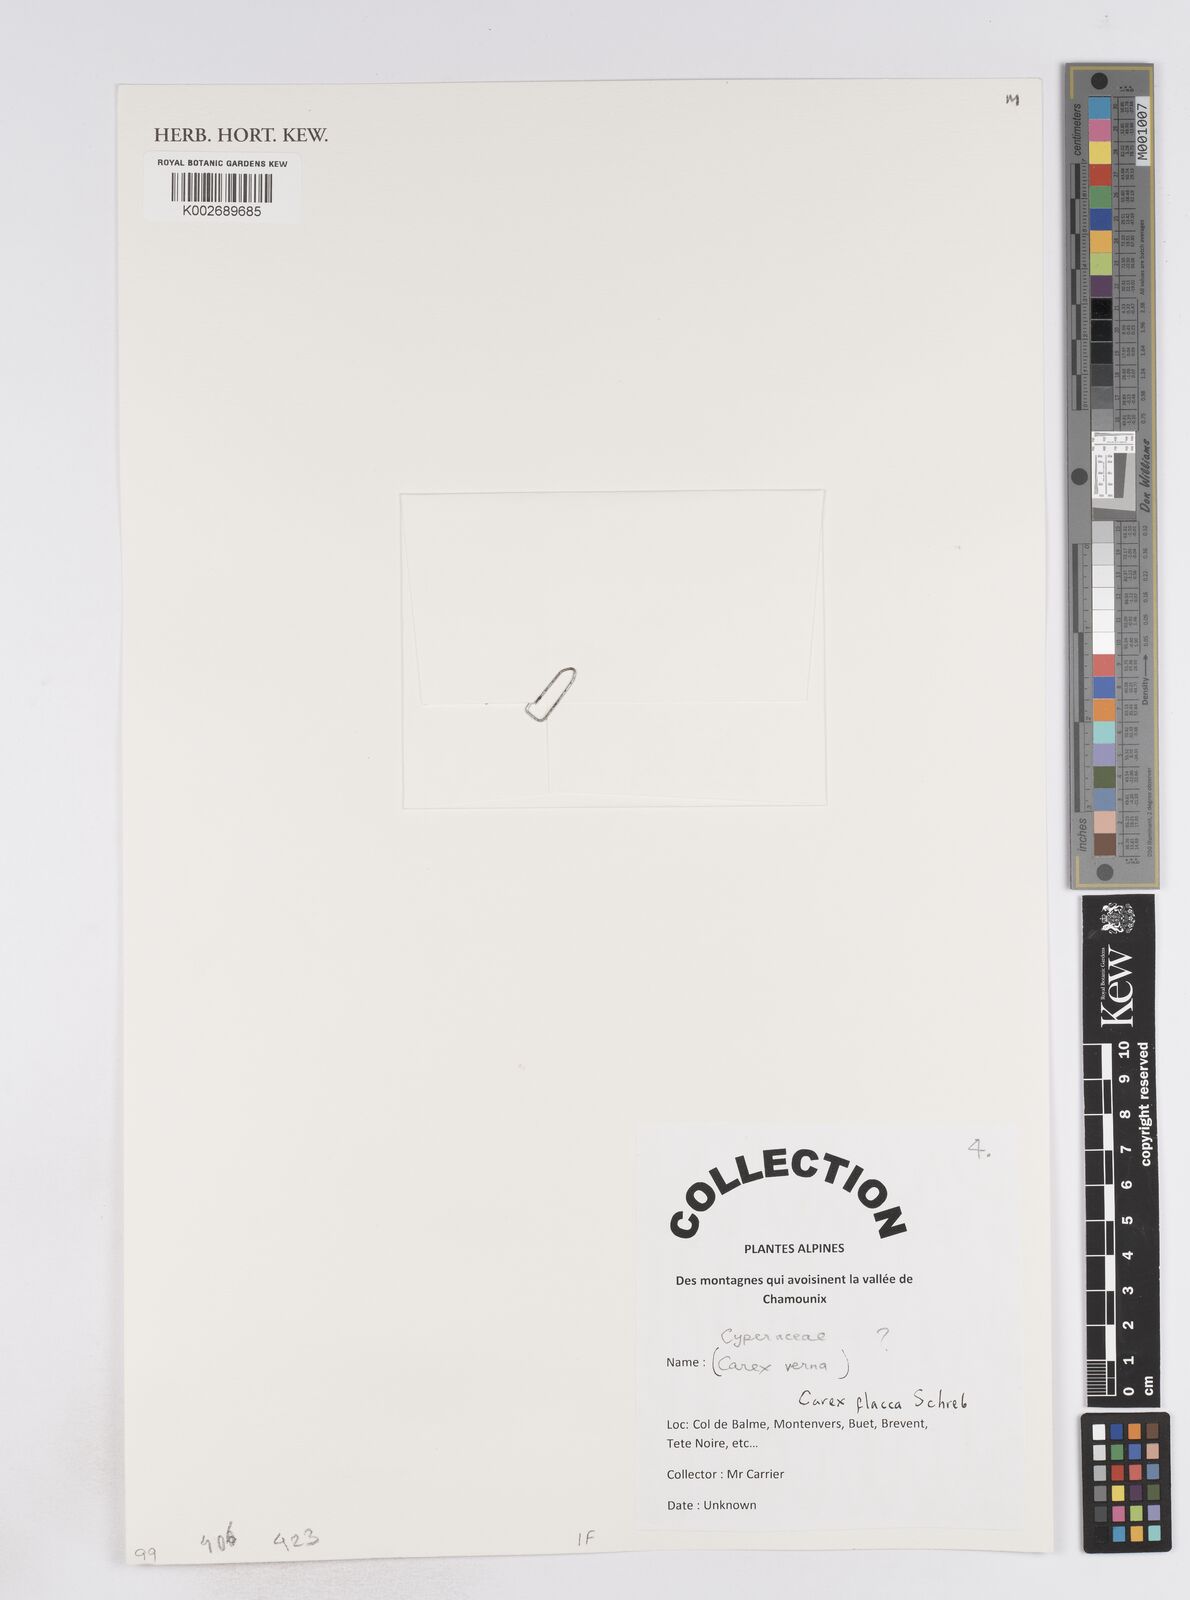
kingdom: Plantae
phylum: Tracheophyta
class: Liliopsida
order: Poales
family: Cyperaceae
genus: Carex
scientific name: Carex flacca
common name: Glaucous sedge
